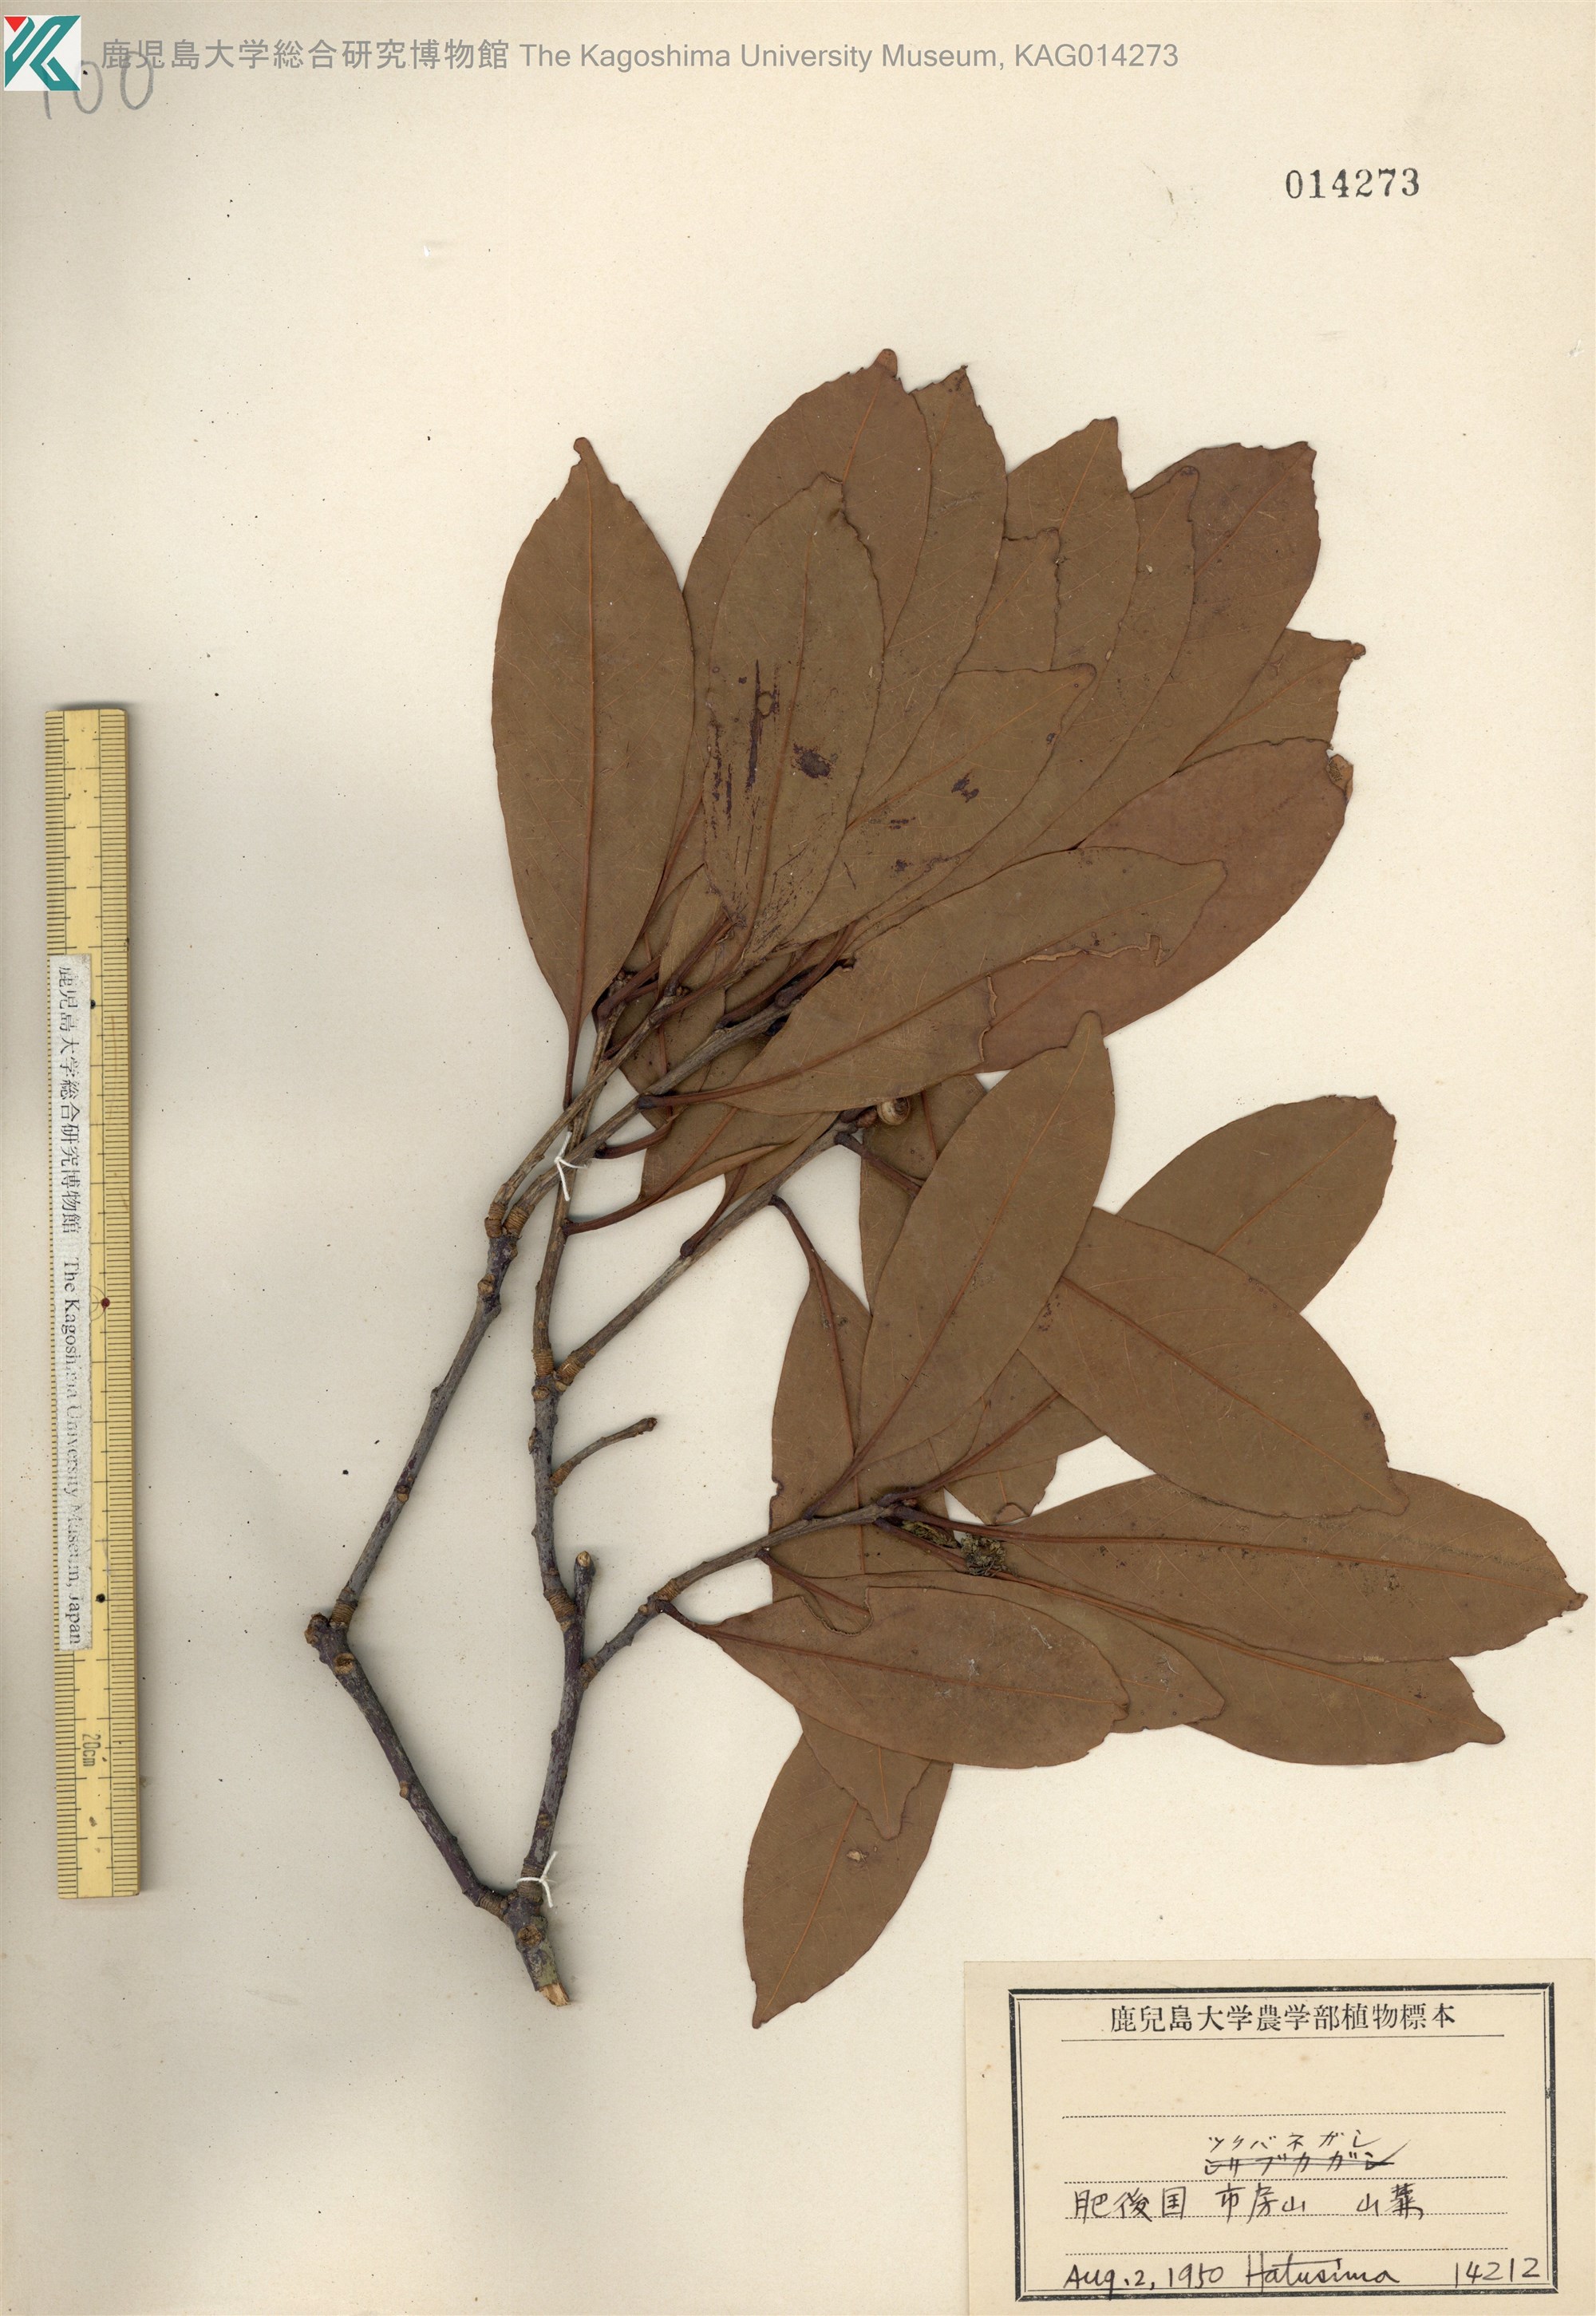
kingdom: Plantae
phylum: Tracheophyta
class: Magnoliopsida
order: Fagales
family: Fagaceae
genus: Quercus
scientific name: Quercus sessilifolia
